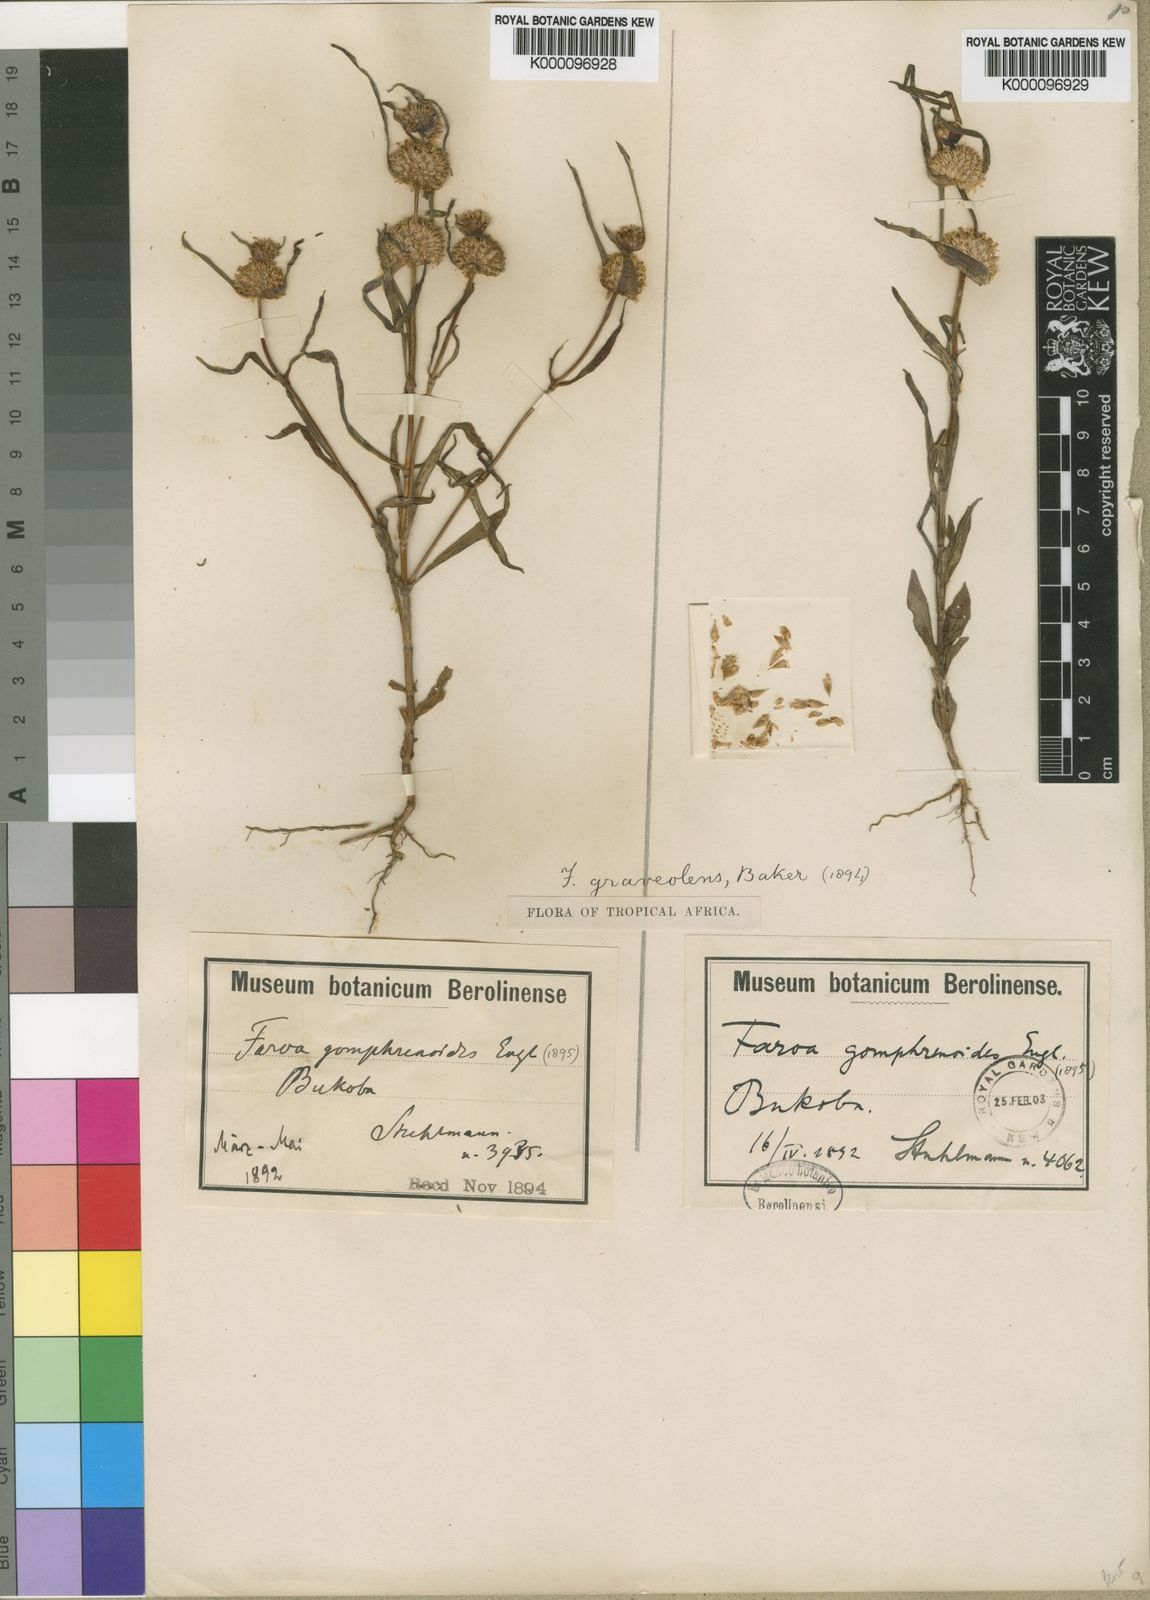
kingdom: Plantae
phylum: Tracheophyta
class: Magnoliopsida
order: Gentianales
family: Gentianaceae
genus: Faroa
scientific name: Faroa graveolens
